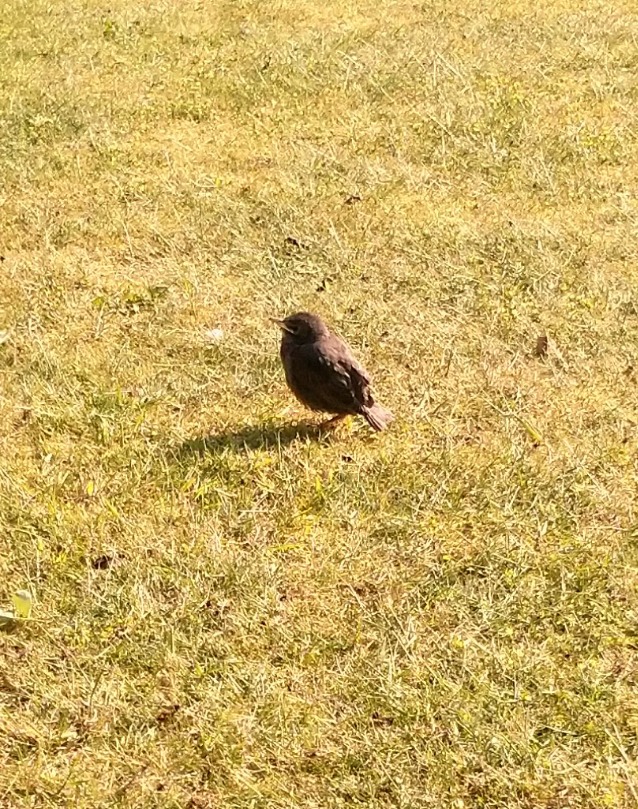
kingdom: Animalia
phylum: Chordata
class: Aves
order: Passeriformes
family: Sturnidae
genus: Sturnus
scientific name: Sturnus vulgaris
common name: Stær
